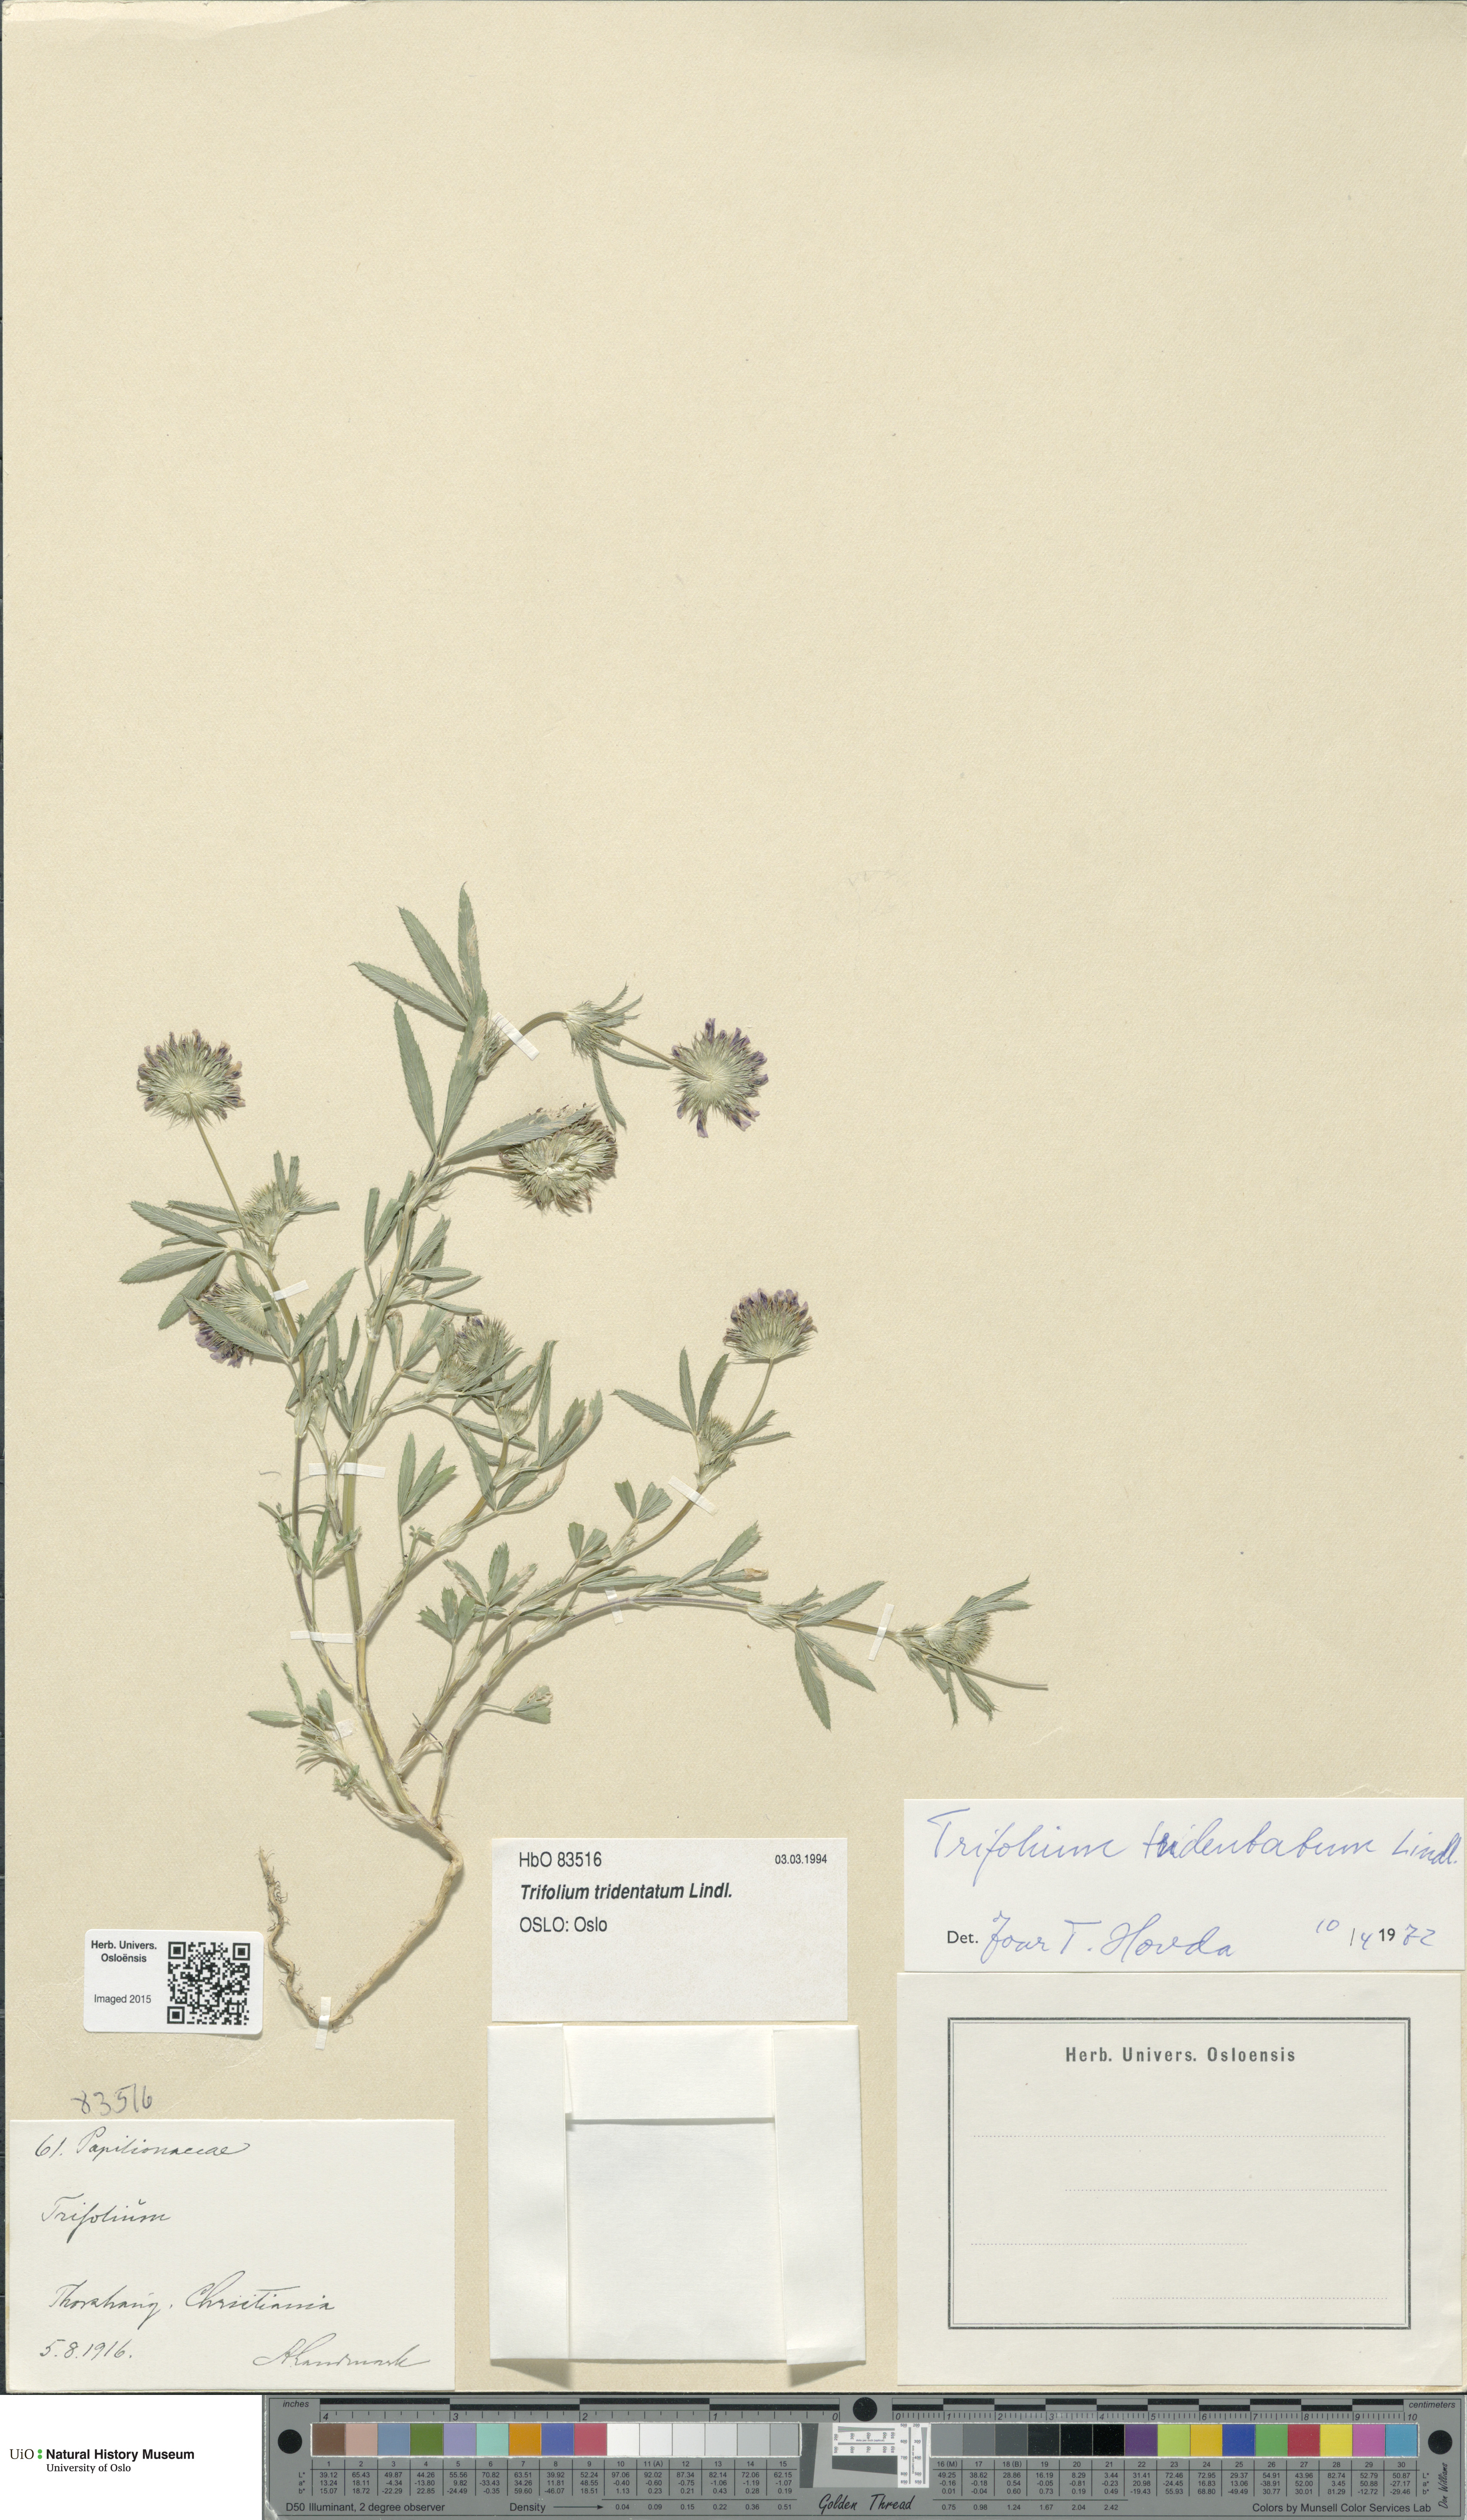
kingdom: Plantae
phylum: Tracheophyta
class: Magnoliopsida
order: Fabales
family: Fabaceae
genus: Trifolium
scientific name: Trifolium willdenowii
